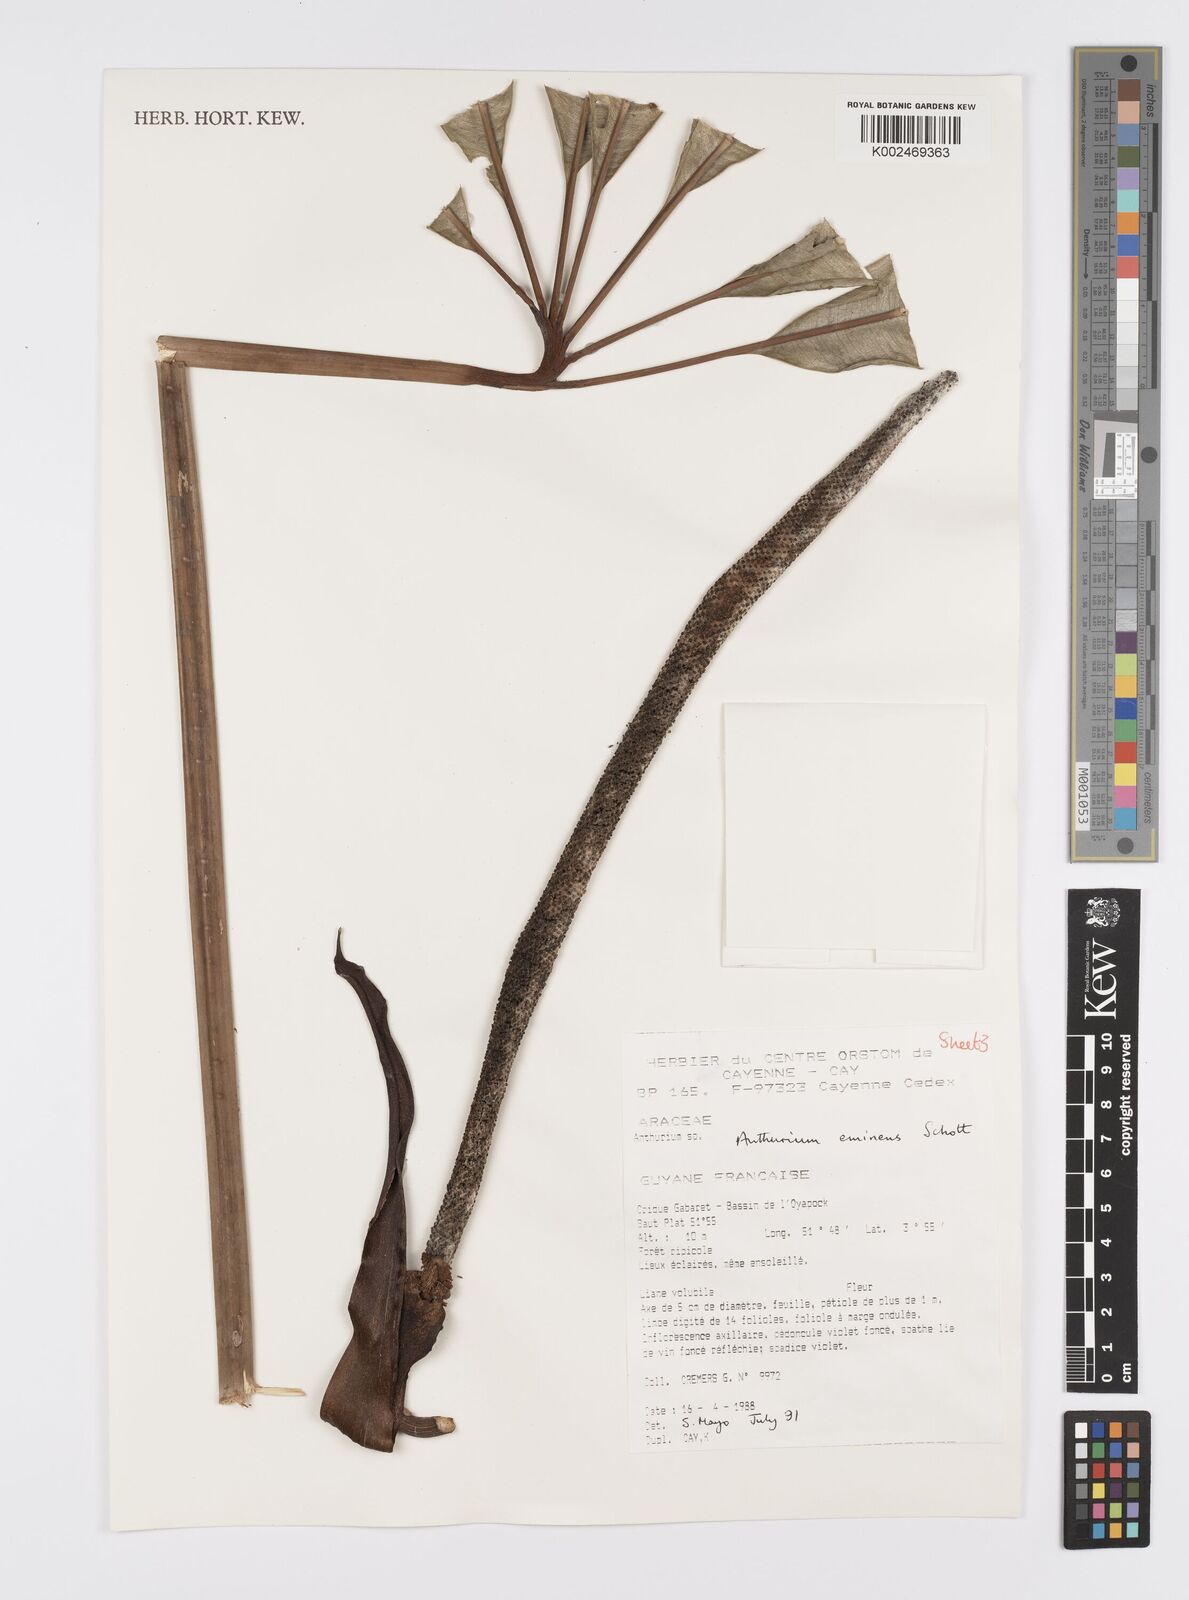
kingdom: Plantae
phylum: Tracheophyta
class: Liliopsida
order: Alismatales
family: Araceae
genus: Anthurium
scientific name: Anthurium eminens
